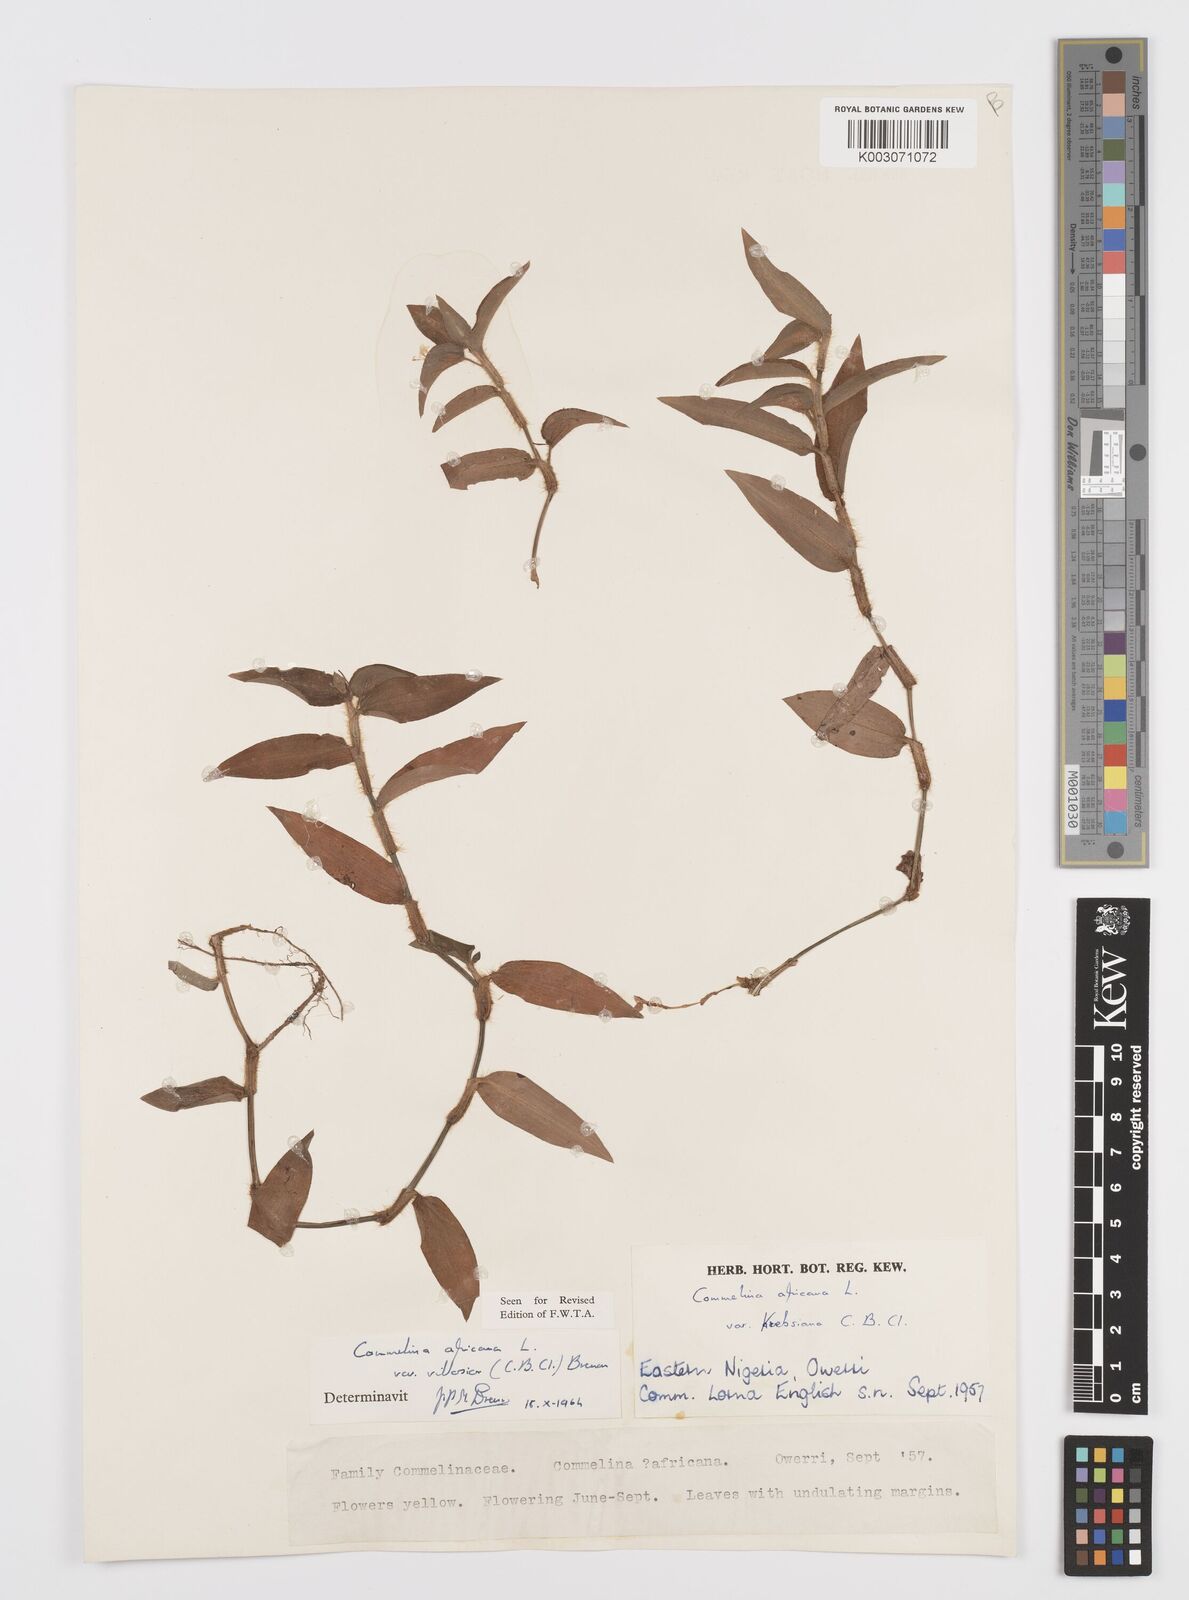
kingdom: Plantae
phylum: Tracheophyta
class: Liliopsida
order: Commelinales
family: Commelinaceae
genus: Commelina
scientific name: Commelina africana
